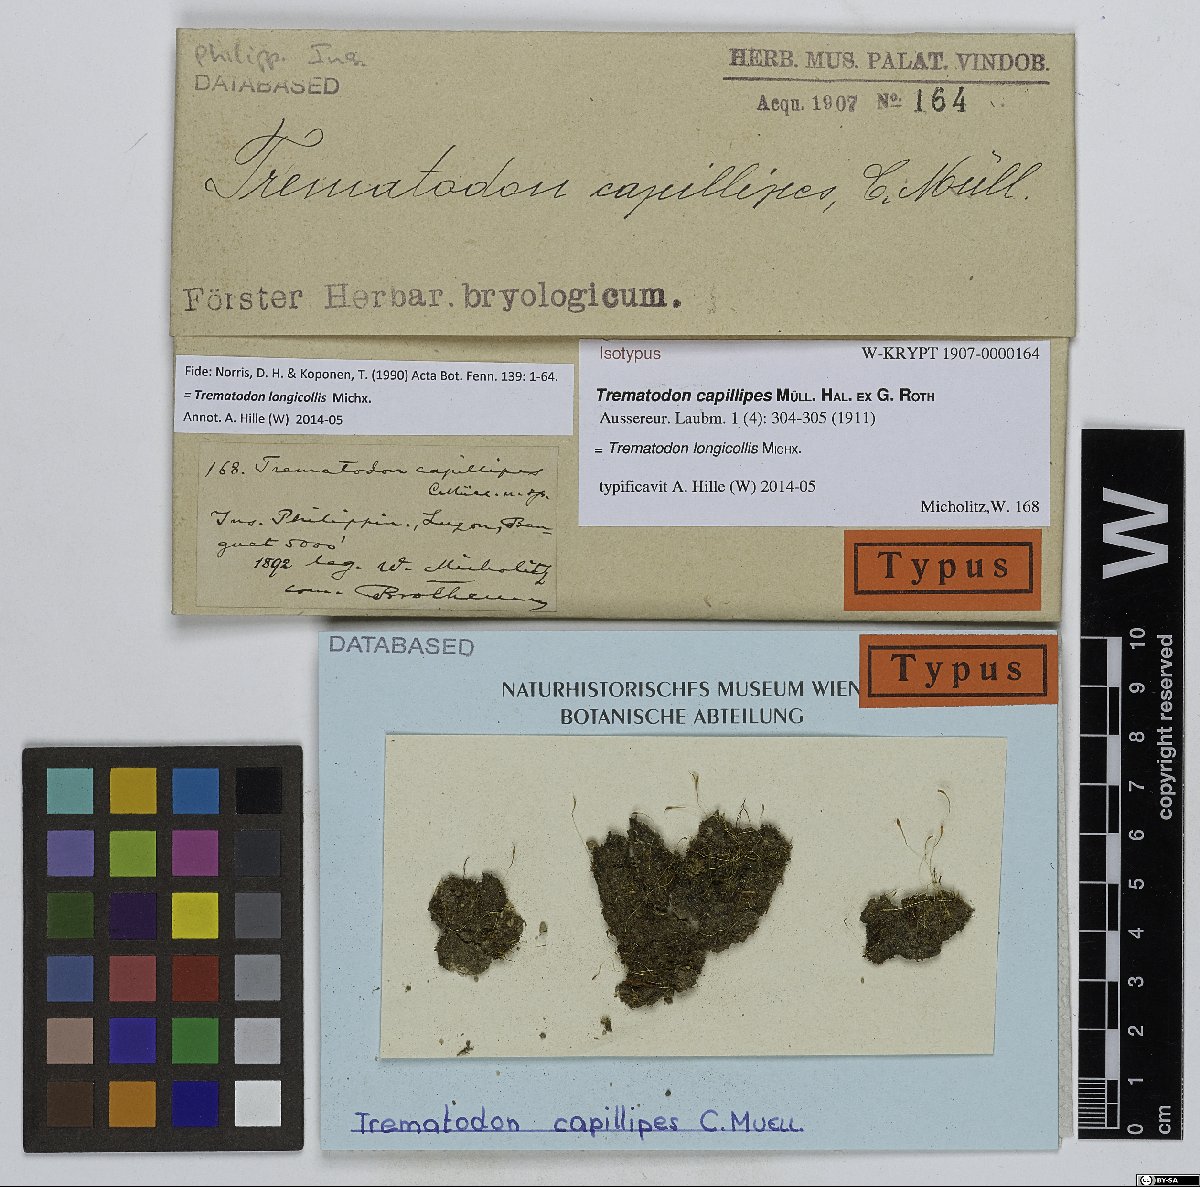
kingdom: Plantae
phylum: Bryophyta
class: Bryopsida
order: Dicranales
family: Bruchiaceae
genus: Trematodon
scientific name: Trematodon longicollis
